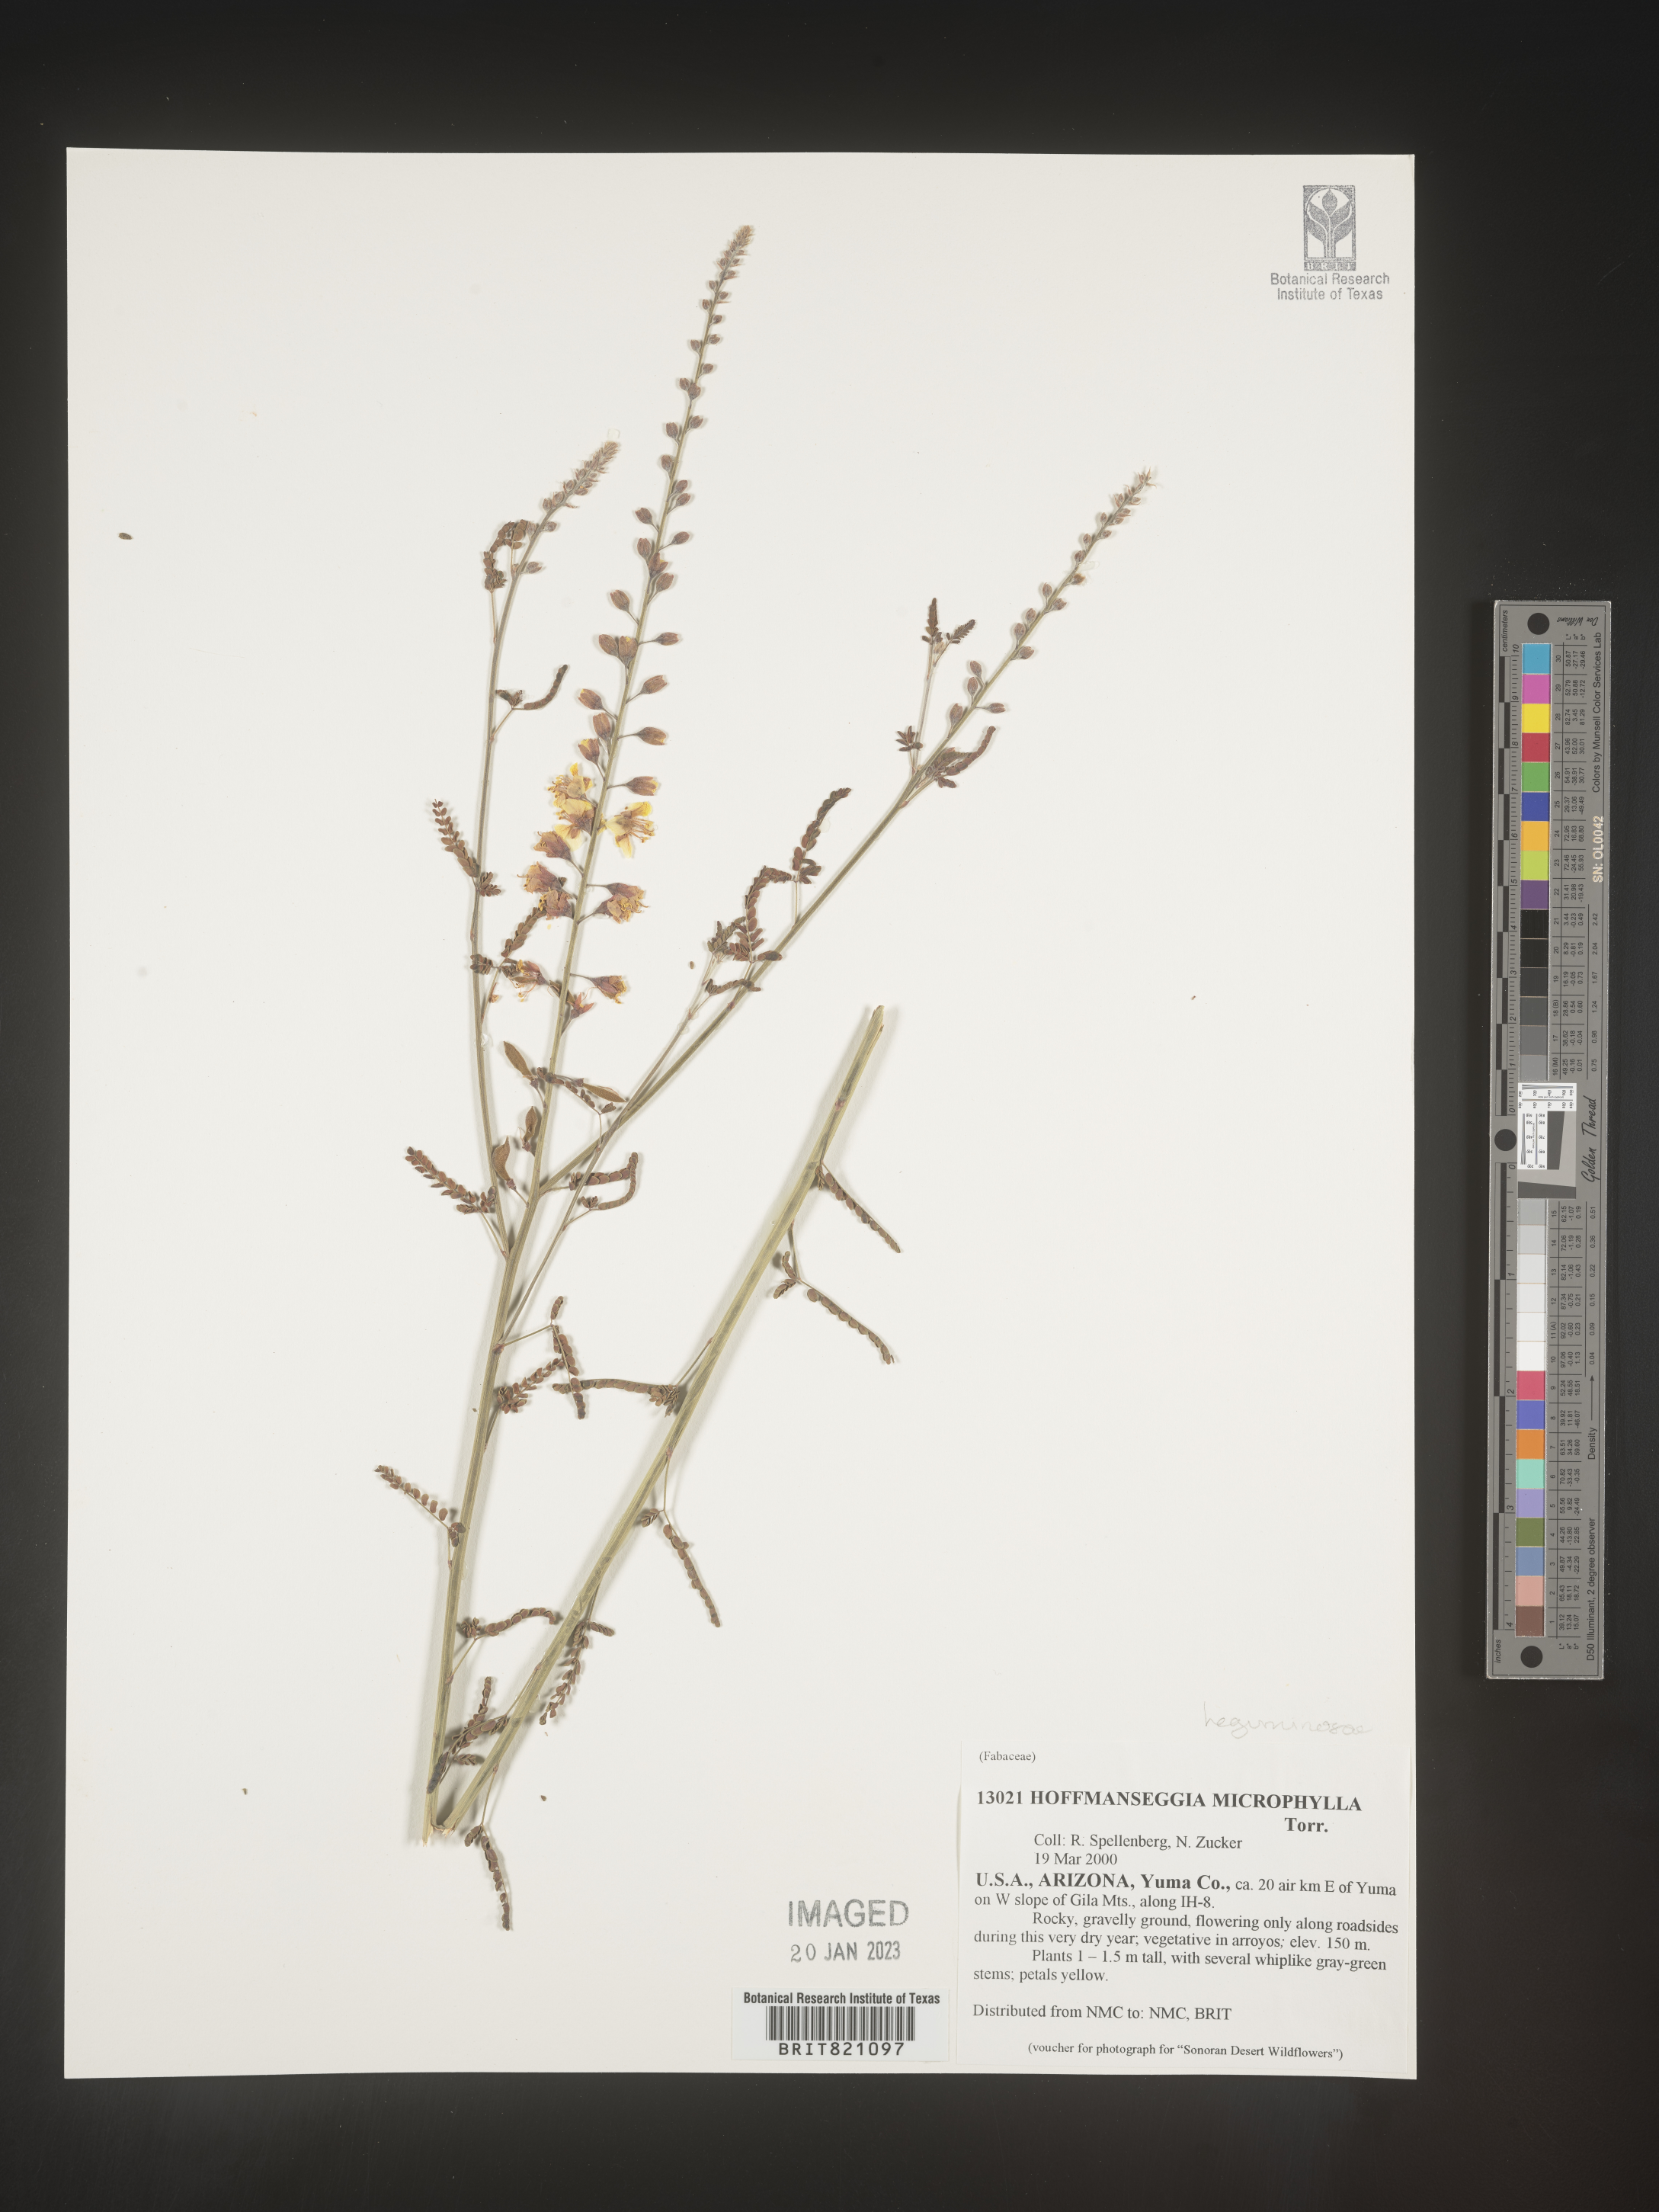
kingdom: Plantae
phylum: Tracheophyta
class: Magnoliopsida
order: Fabales
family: Fabaceae
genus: Hoffmannseggia
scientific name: Hoffmannseggia
